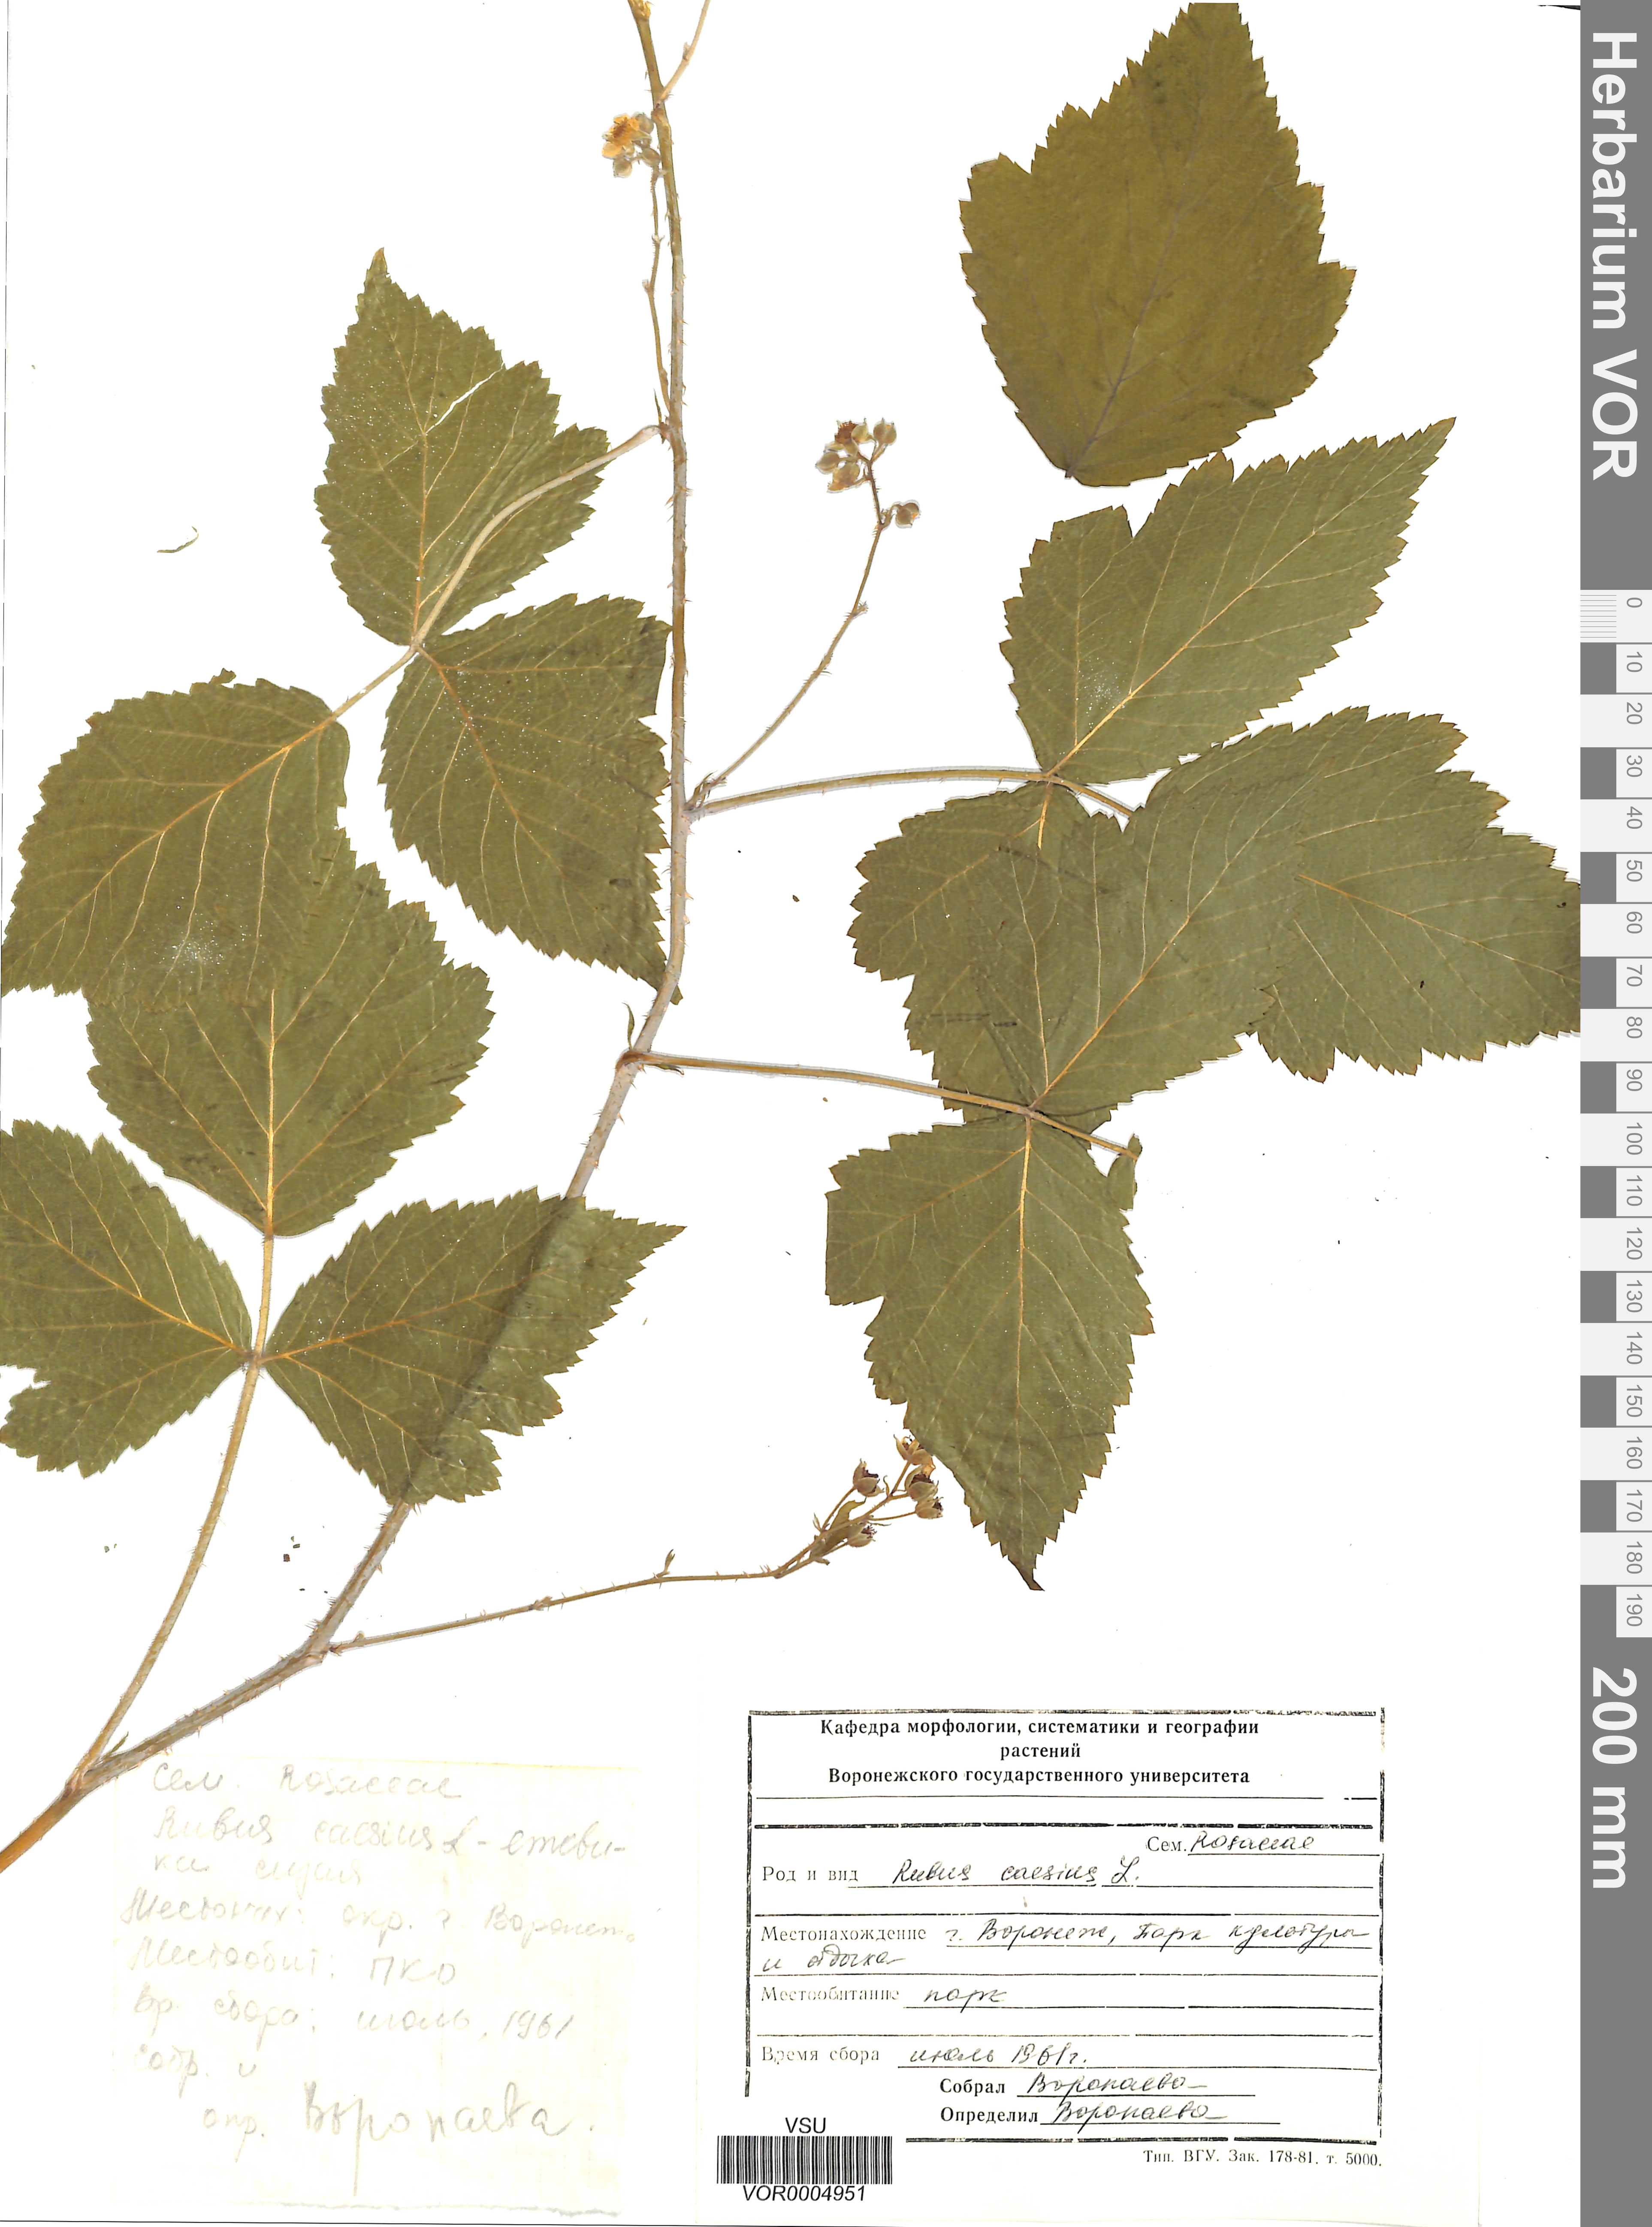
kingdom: Plantae
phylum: Tracheophyta
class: Magnoliopsida
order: Rosales
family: Rosaceae
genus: Rubus
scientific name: Rubus caesius
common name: Dewberry
